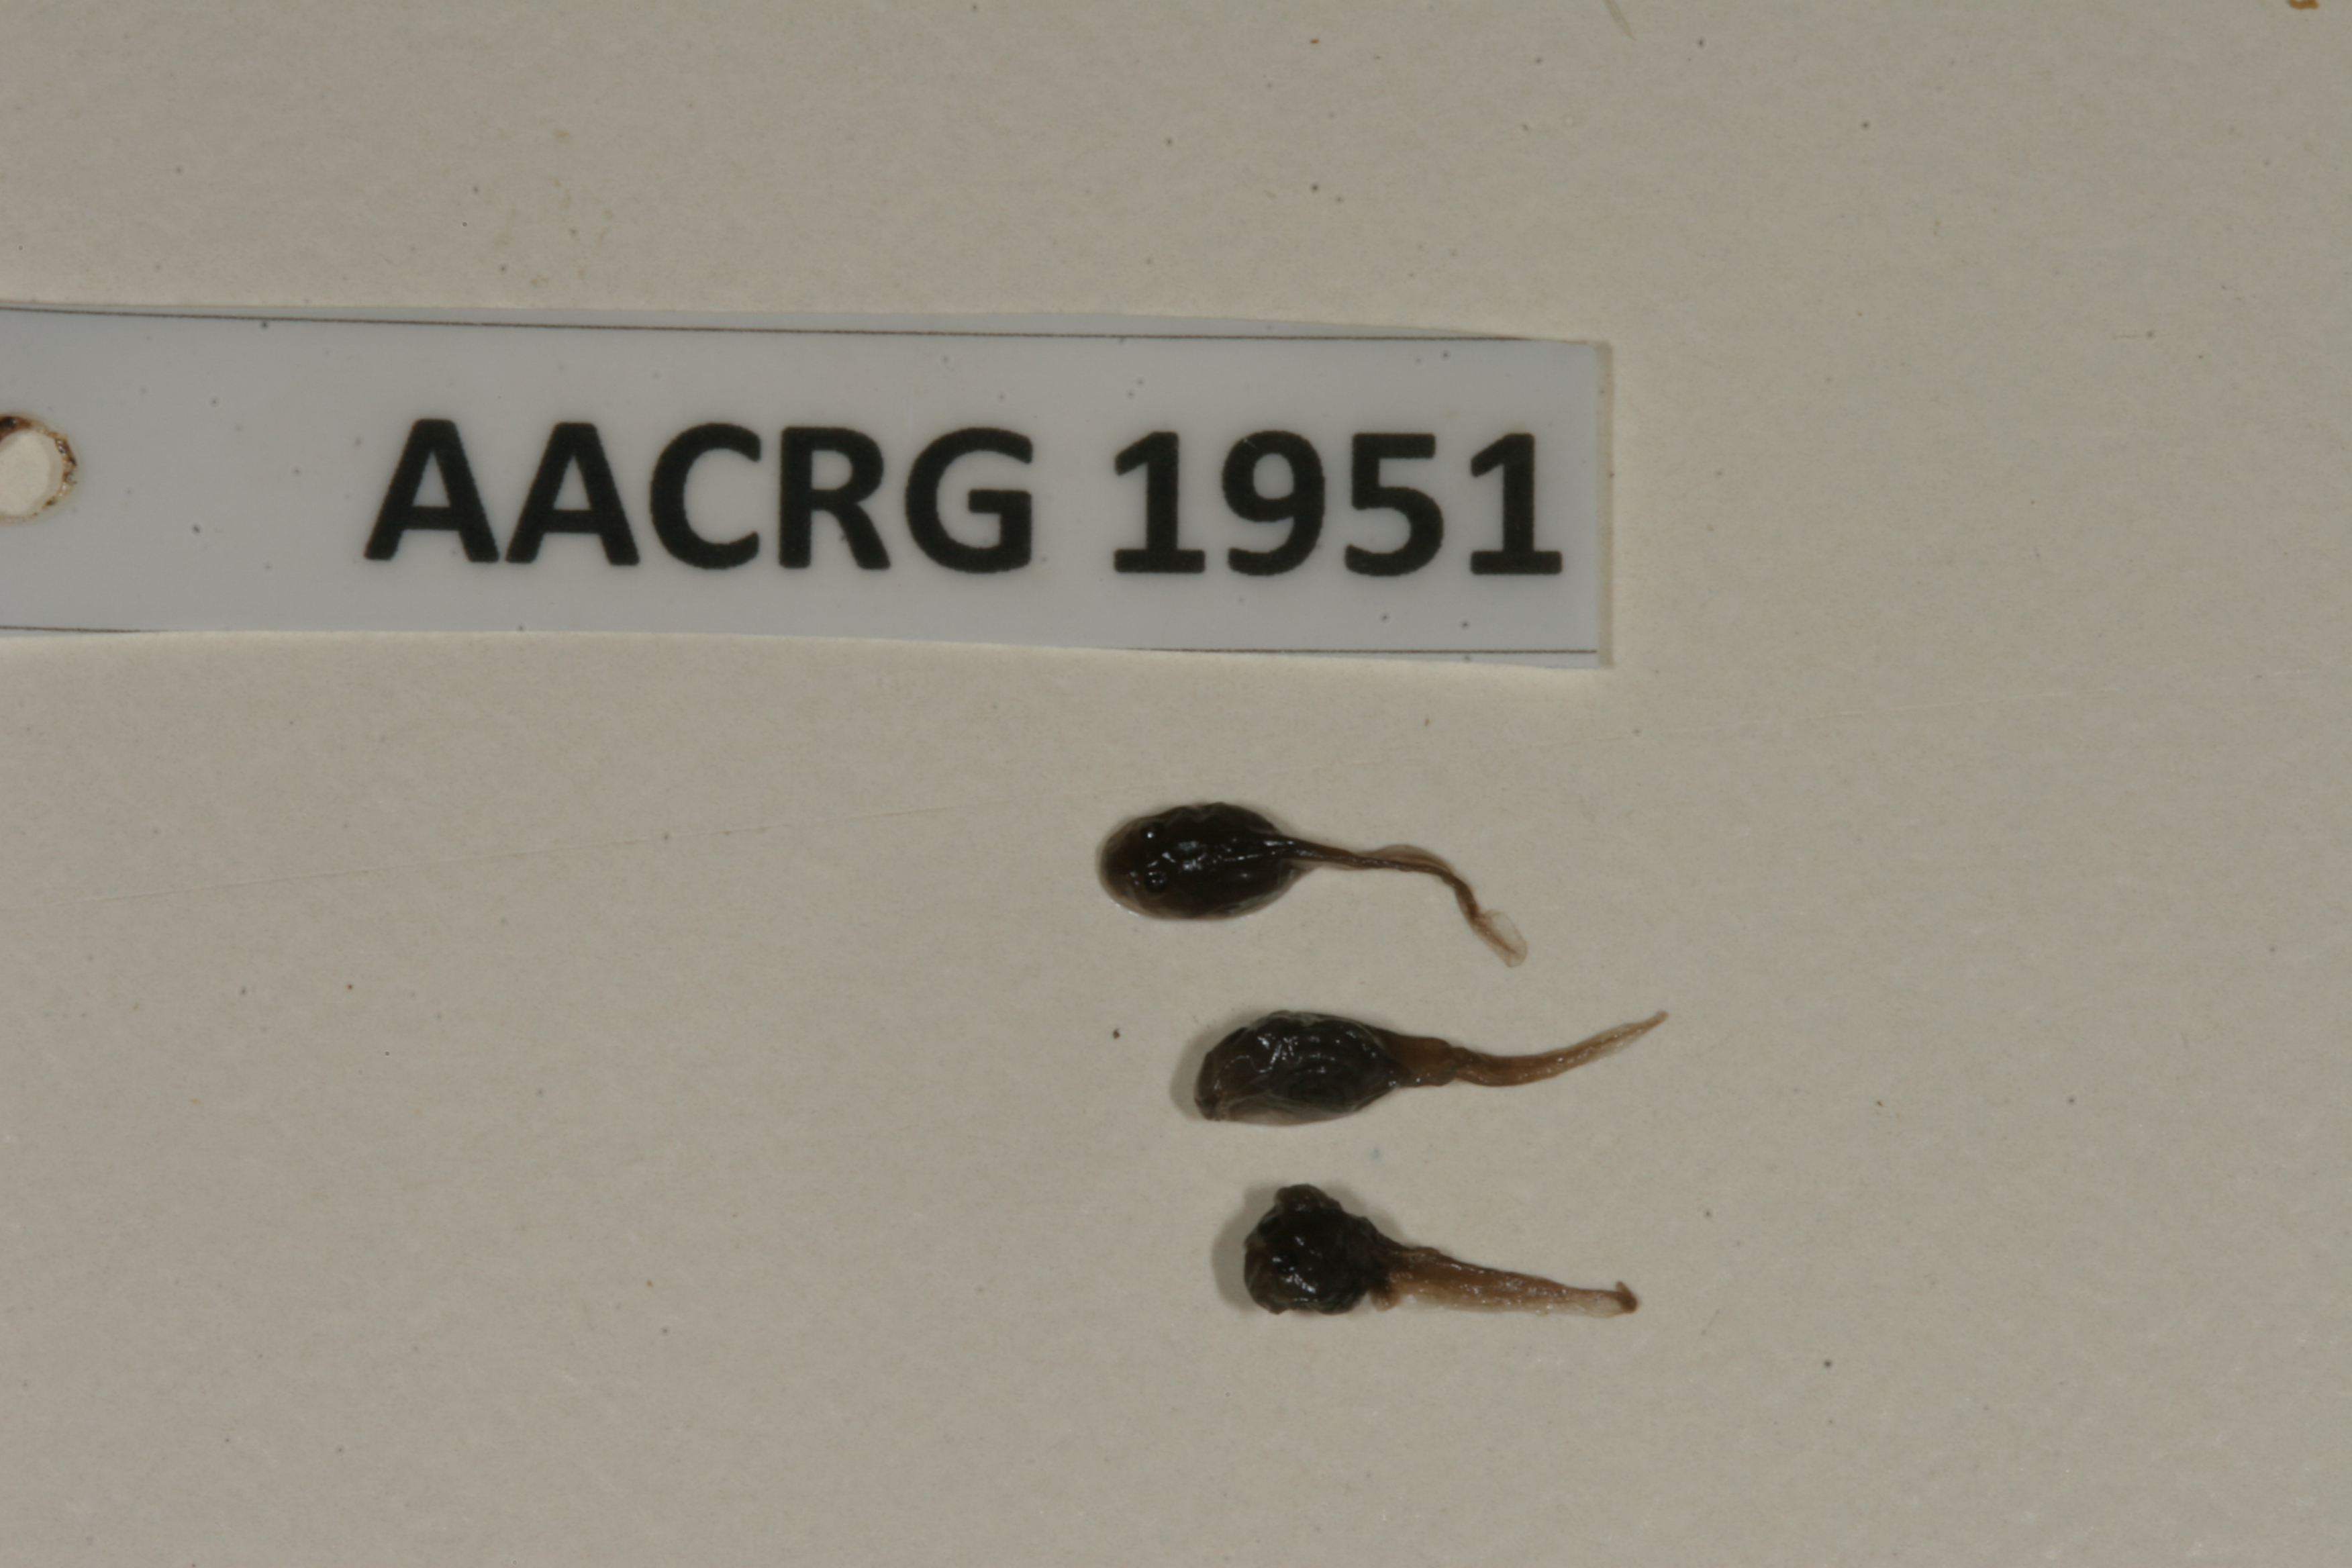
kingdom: Animalia
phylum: Chordata
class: Amphibia
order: Anura
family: Bufonidae
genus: Sclerophrys
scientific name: Sclerophrys gutturalis
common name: African common toad
